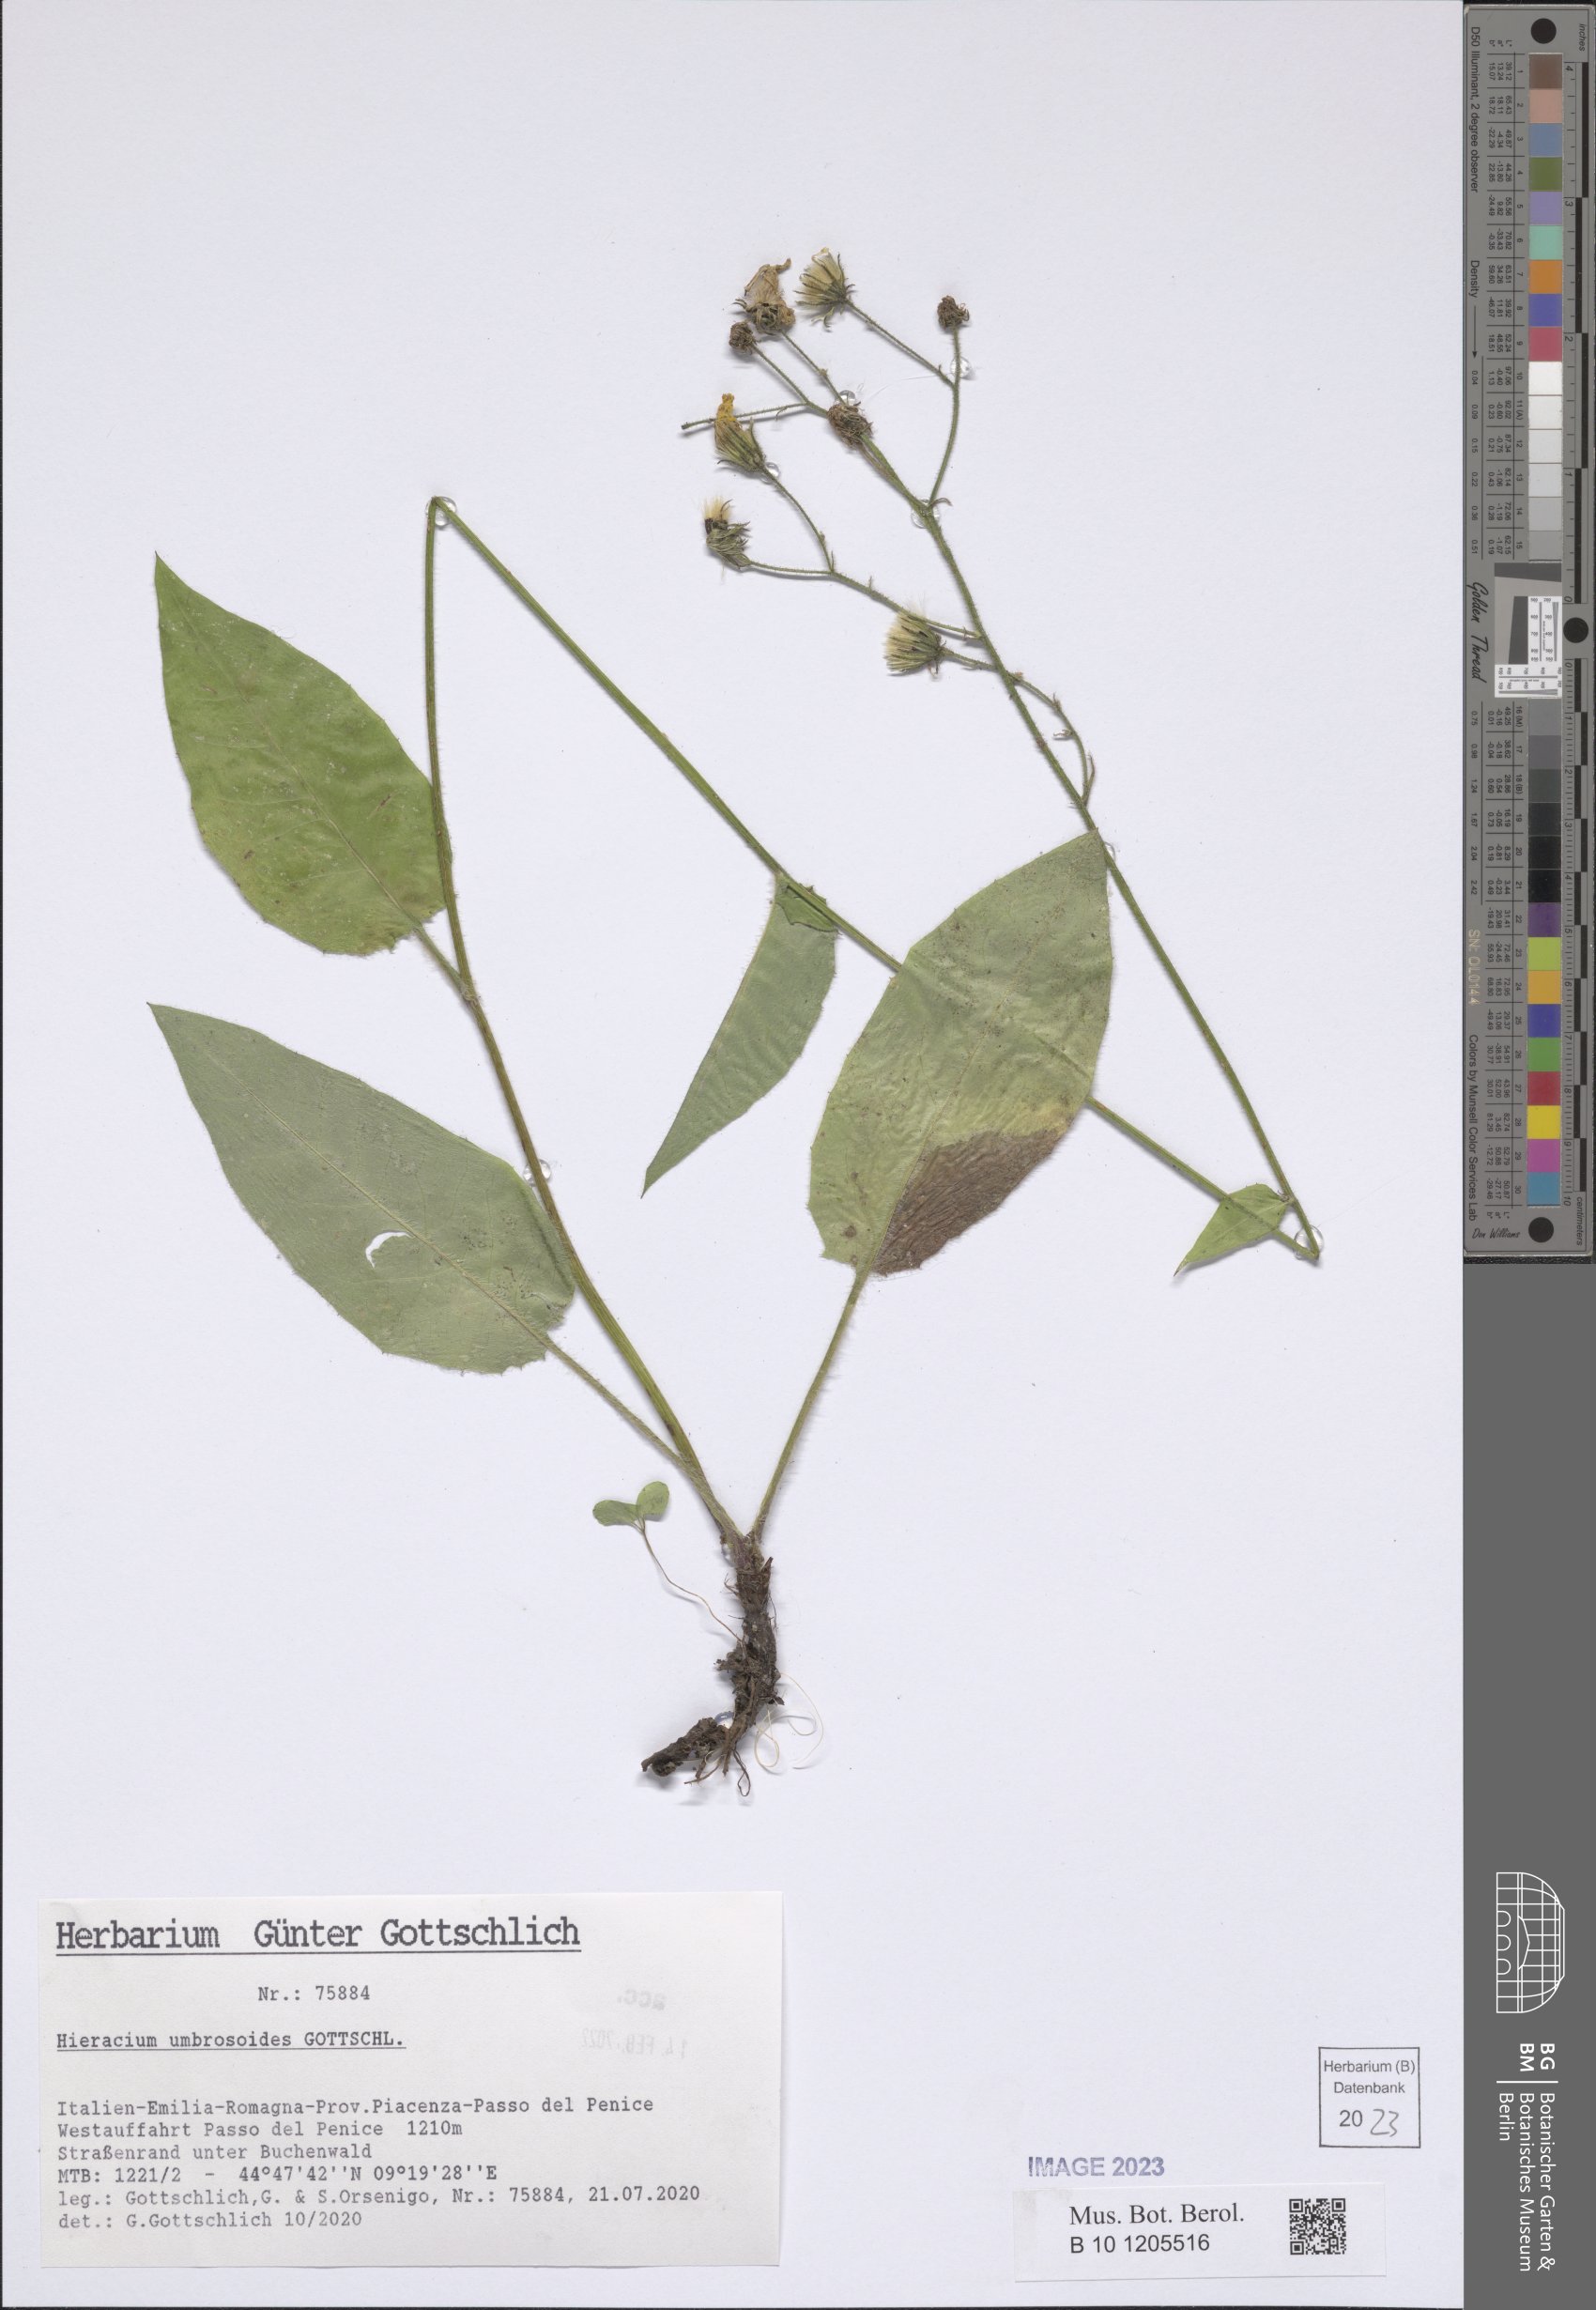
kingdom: Plantae
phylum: Tracheophyta
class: Magnoliopsida
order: Asterales
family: Asteraceae
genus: Hieracium
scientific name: Hieracium umbrosoides
